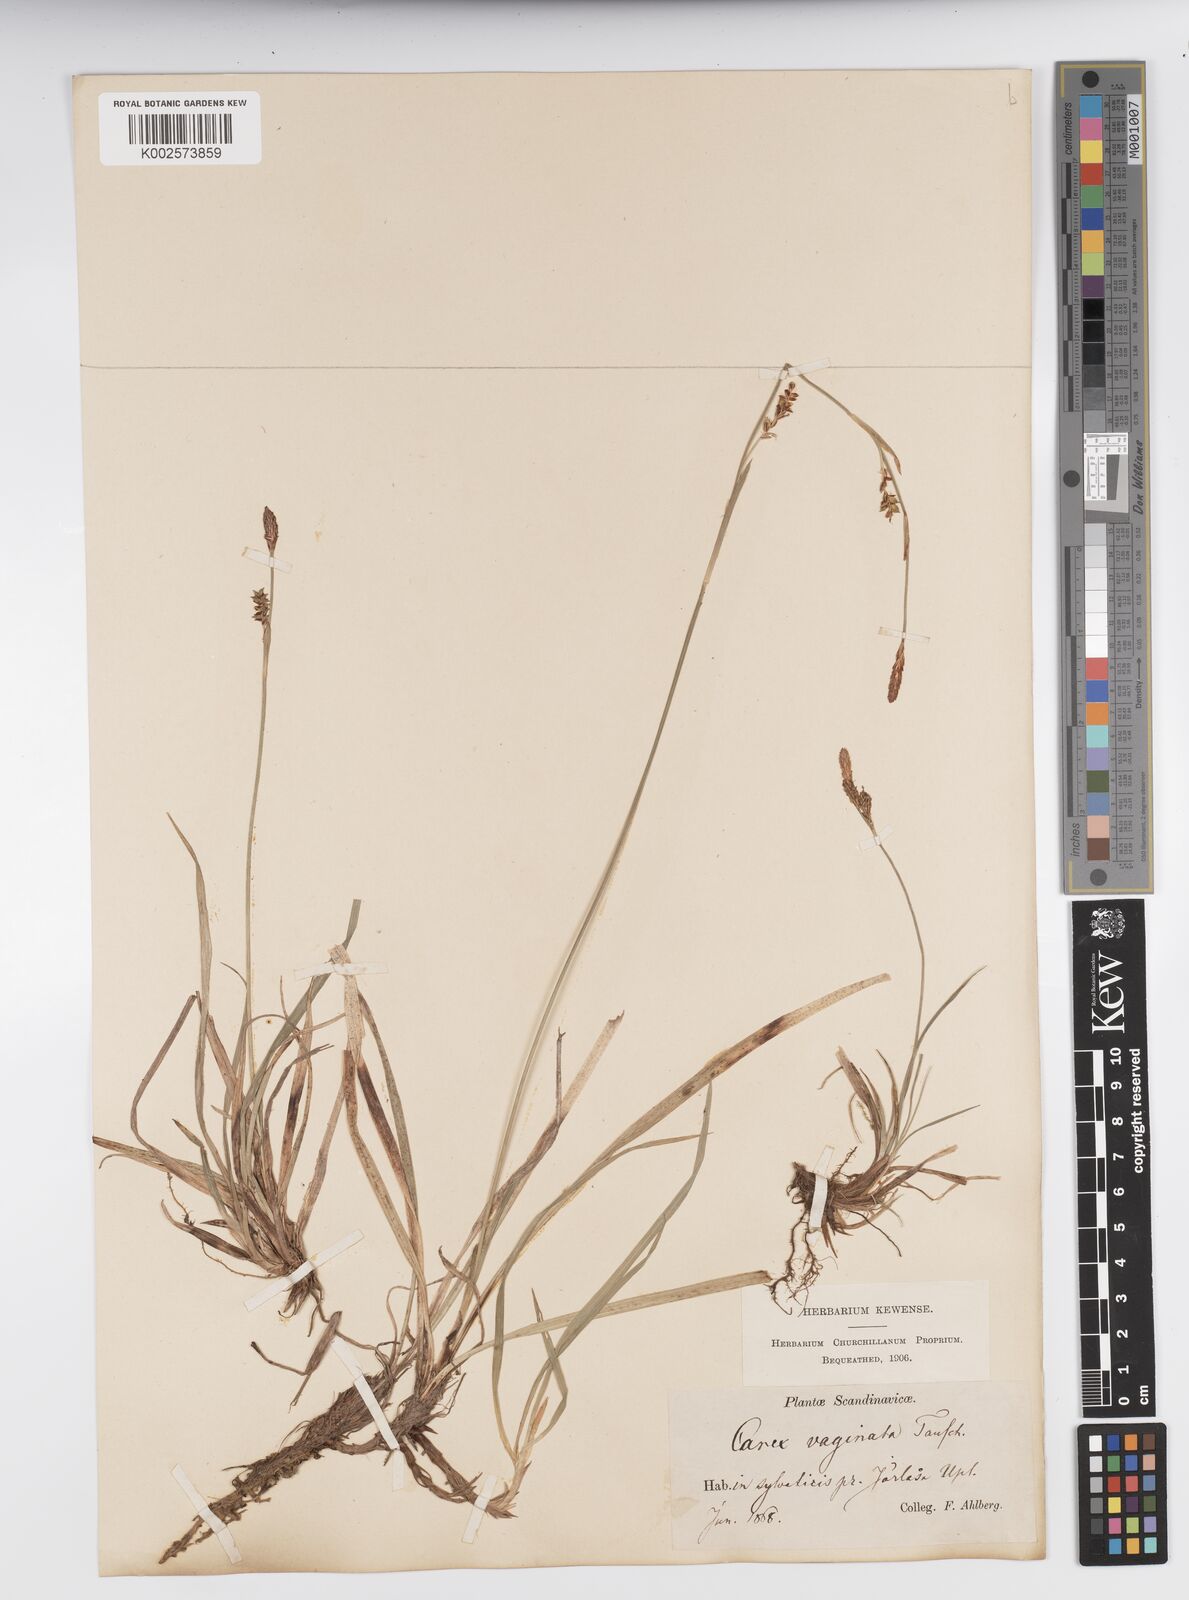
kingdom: Plantae
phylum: Tracheophyta
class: Liliopsida
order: Poales
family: Cyperaceae
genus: Carex
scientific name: Carex vaginata
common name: Sheathed sedge
